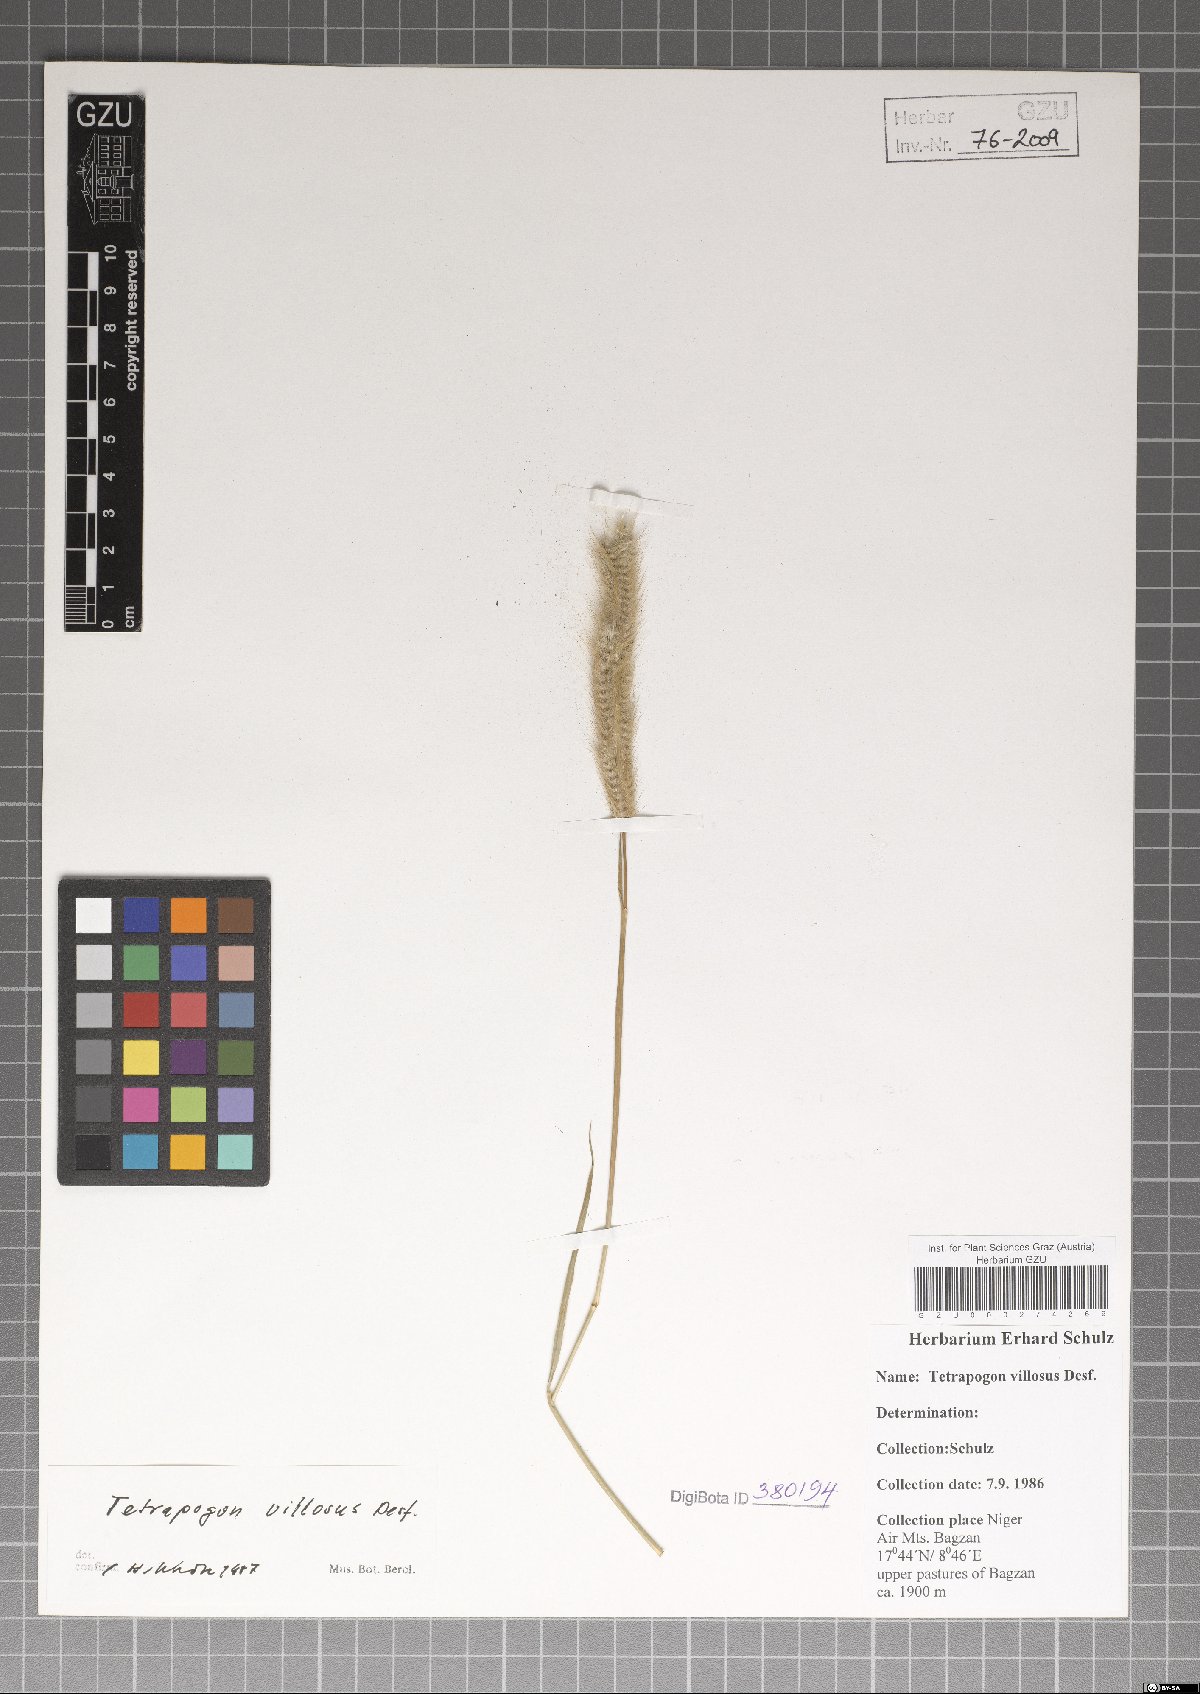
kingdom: Plantae
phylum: Tracheophyta
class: Liliopsida
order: Poales
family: Poaceae
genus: Tetrapogon
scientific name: Tetrapogon villosus
